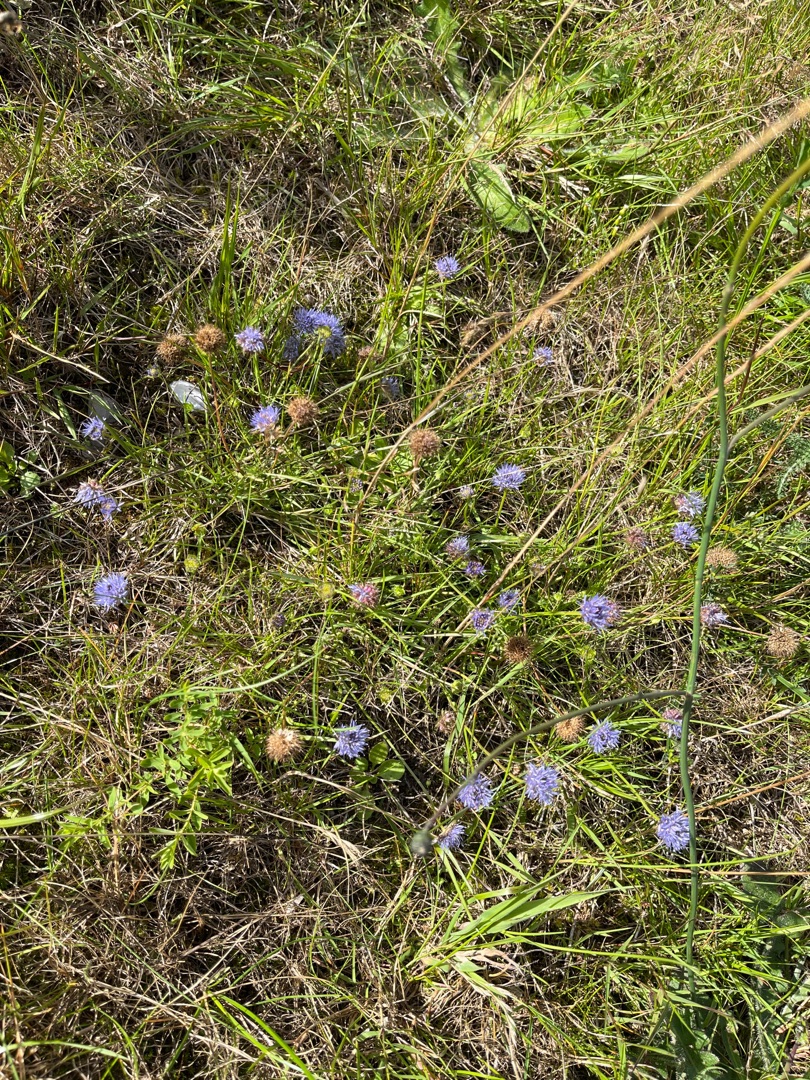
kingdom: Plantae
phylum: Tracheophyta
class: Magnoliopsida
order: Asterales
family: Campanulaceae
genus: Jasione
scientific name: Jasione montana
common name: Blåmunke
